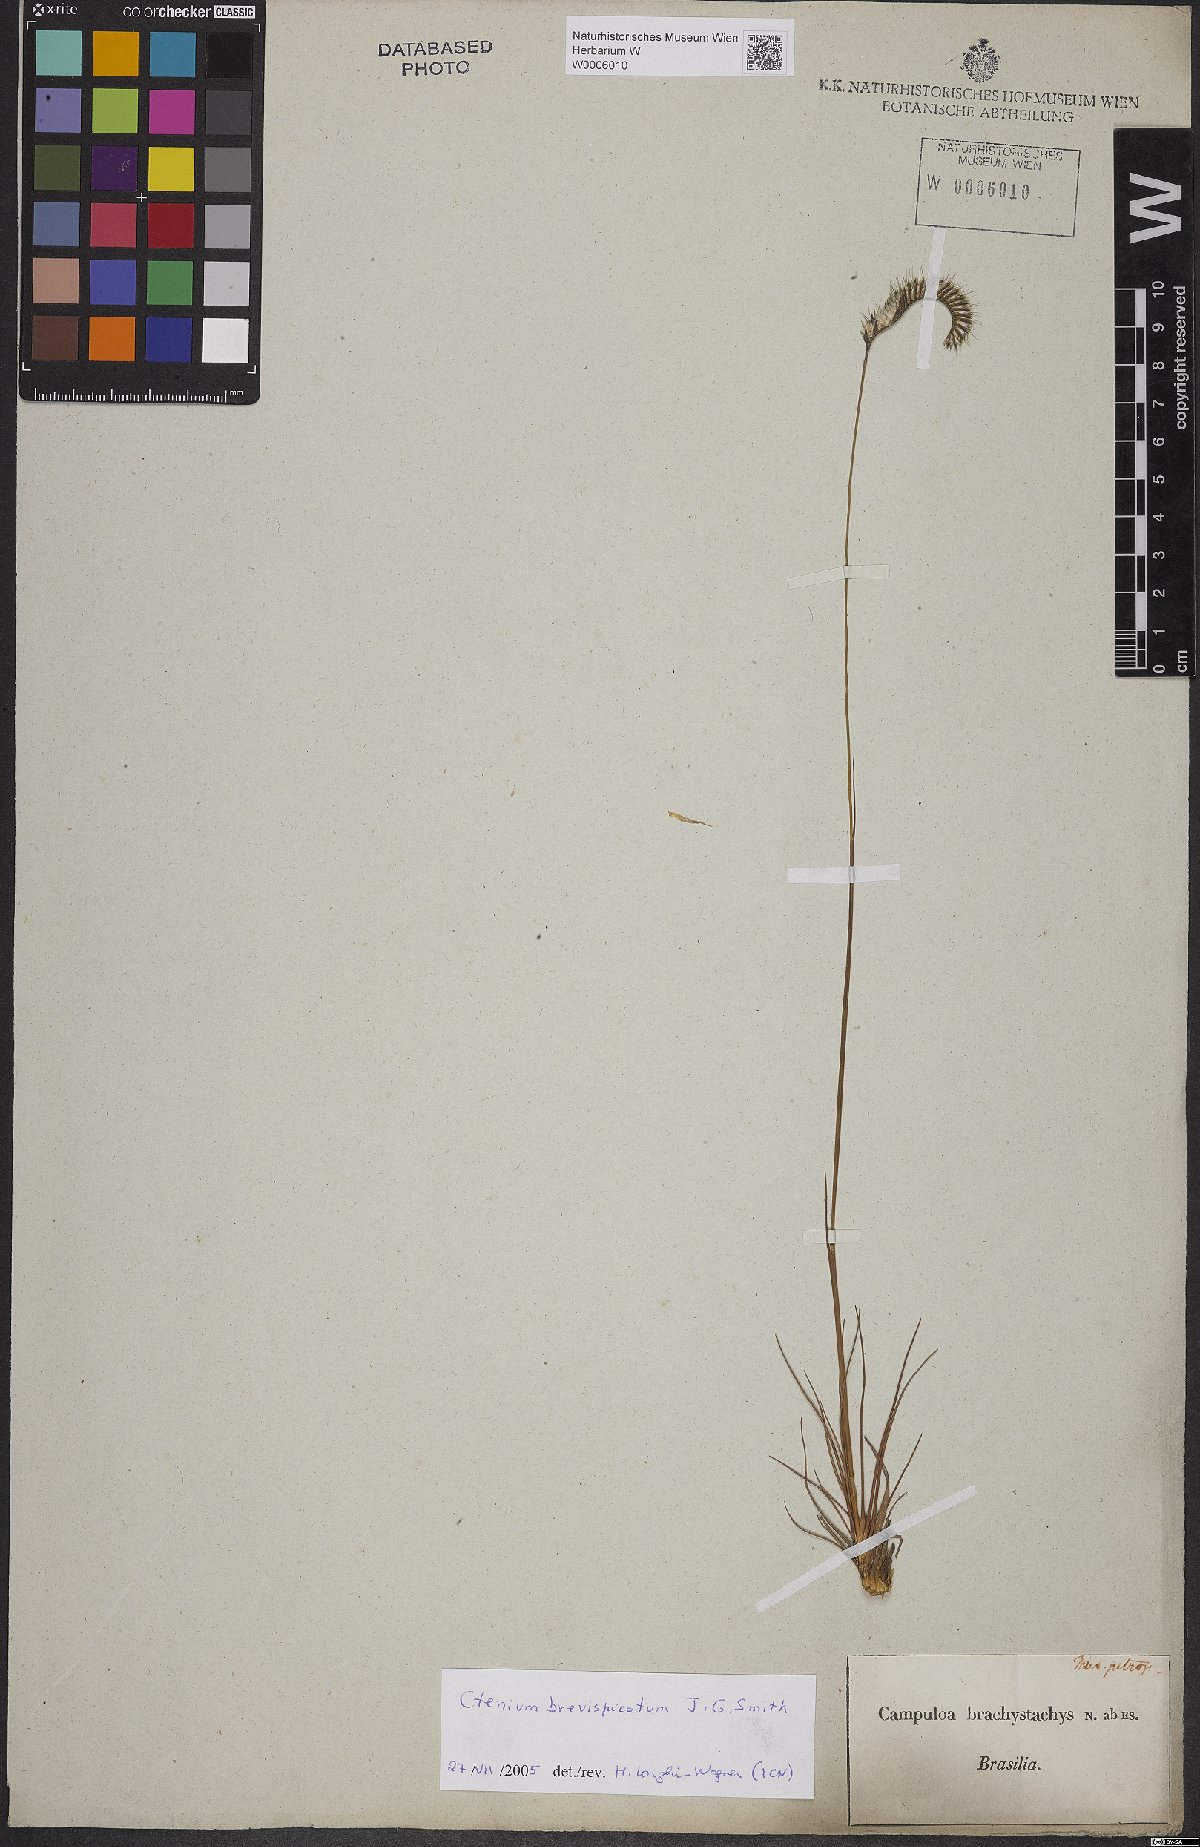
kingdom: Plantae
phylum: Tracheophyta
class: Liliopsida
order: Poales
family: Poaceae
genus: Ctenium
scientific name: Ctenium brevispicatum
